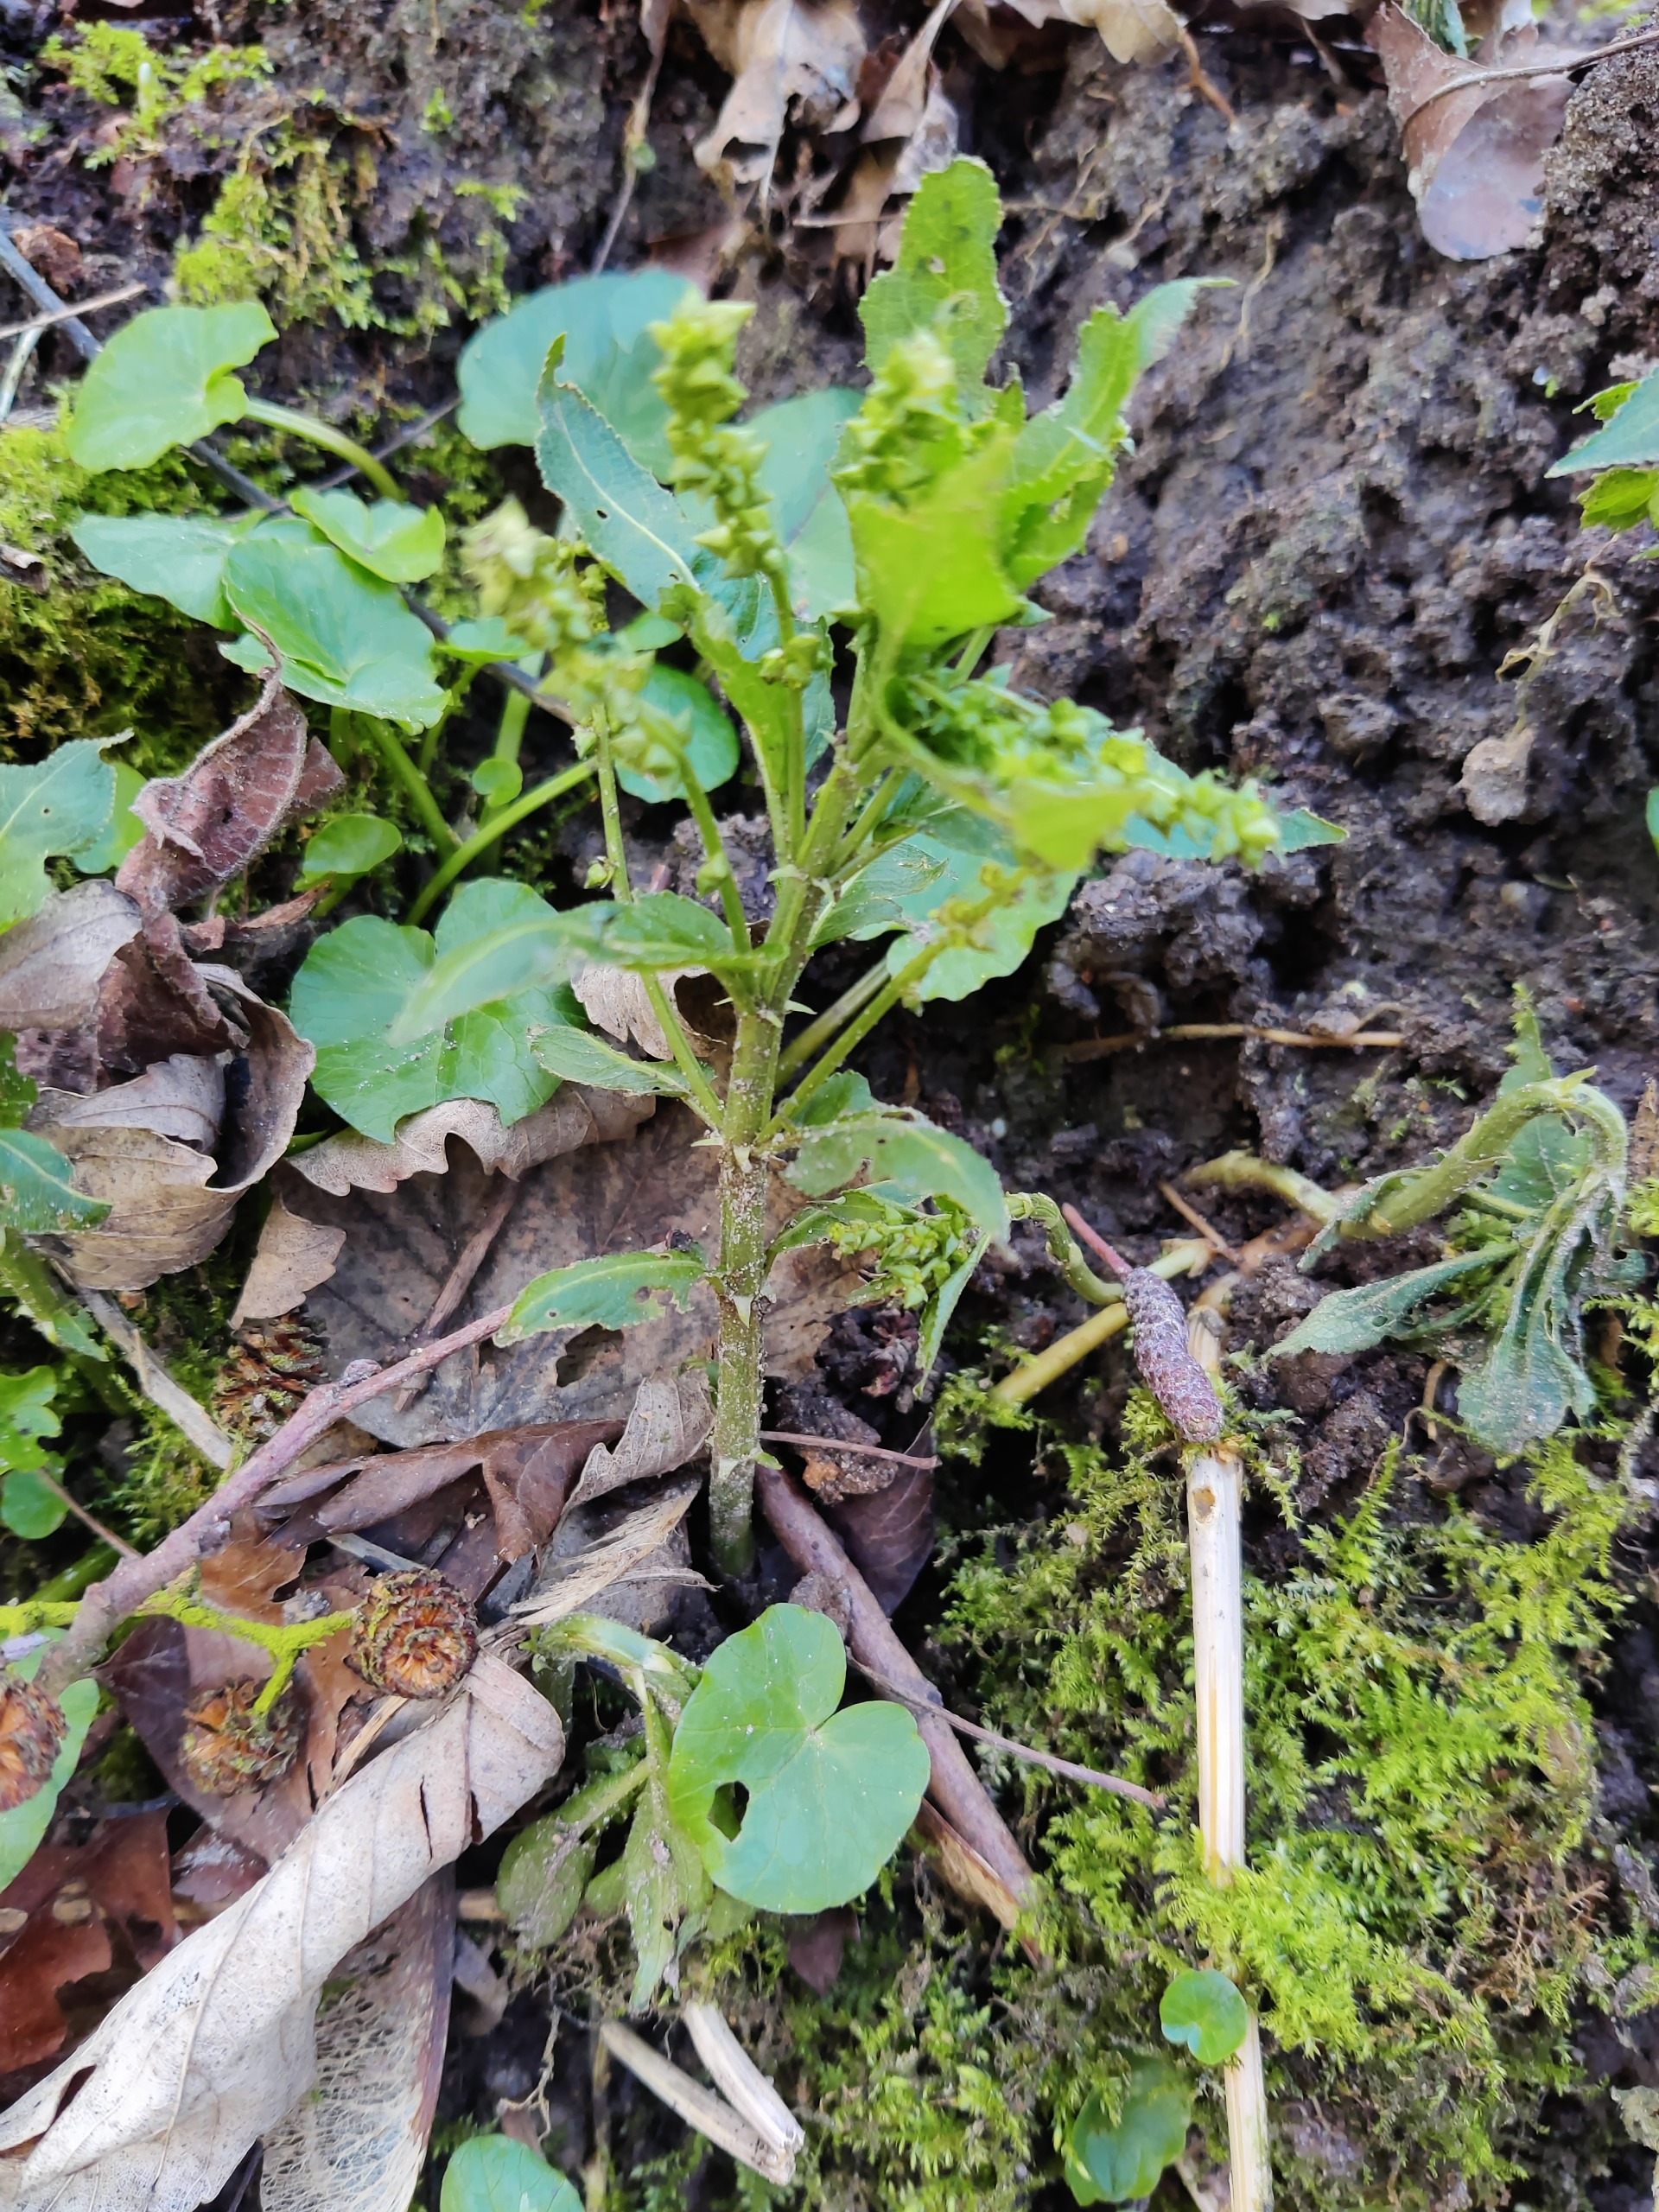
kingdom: Plantae
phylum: Tracheophyta
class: Magnoliopsida
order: Malpighiales
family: Euphorbiaceae
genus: Mercurialis
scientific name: Mercurialis perennis
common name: Almindelig bingelurt
